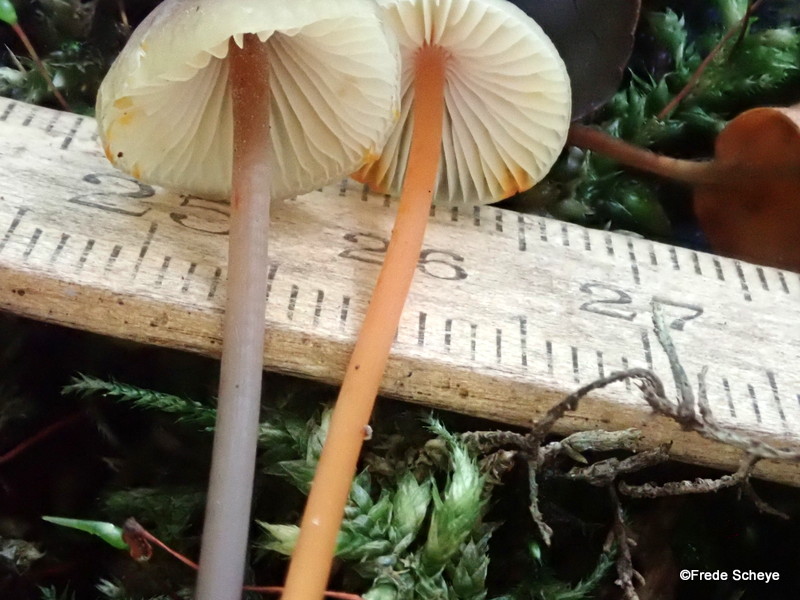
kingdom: Fungi
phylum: Basidiomycota
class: Agaricomycetes
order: Agaricales
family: Mycenaceae
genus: Mycena
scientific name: Mycena crocata
